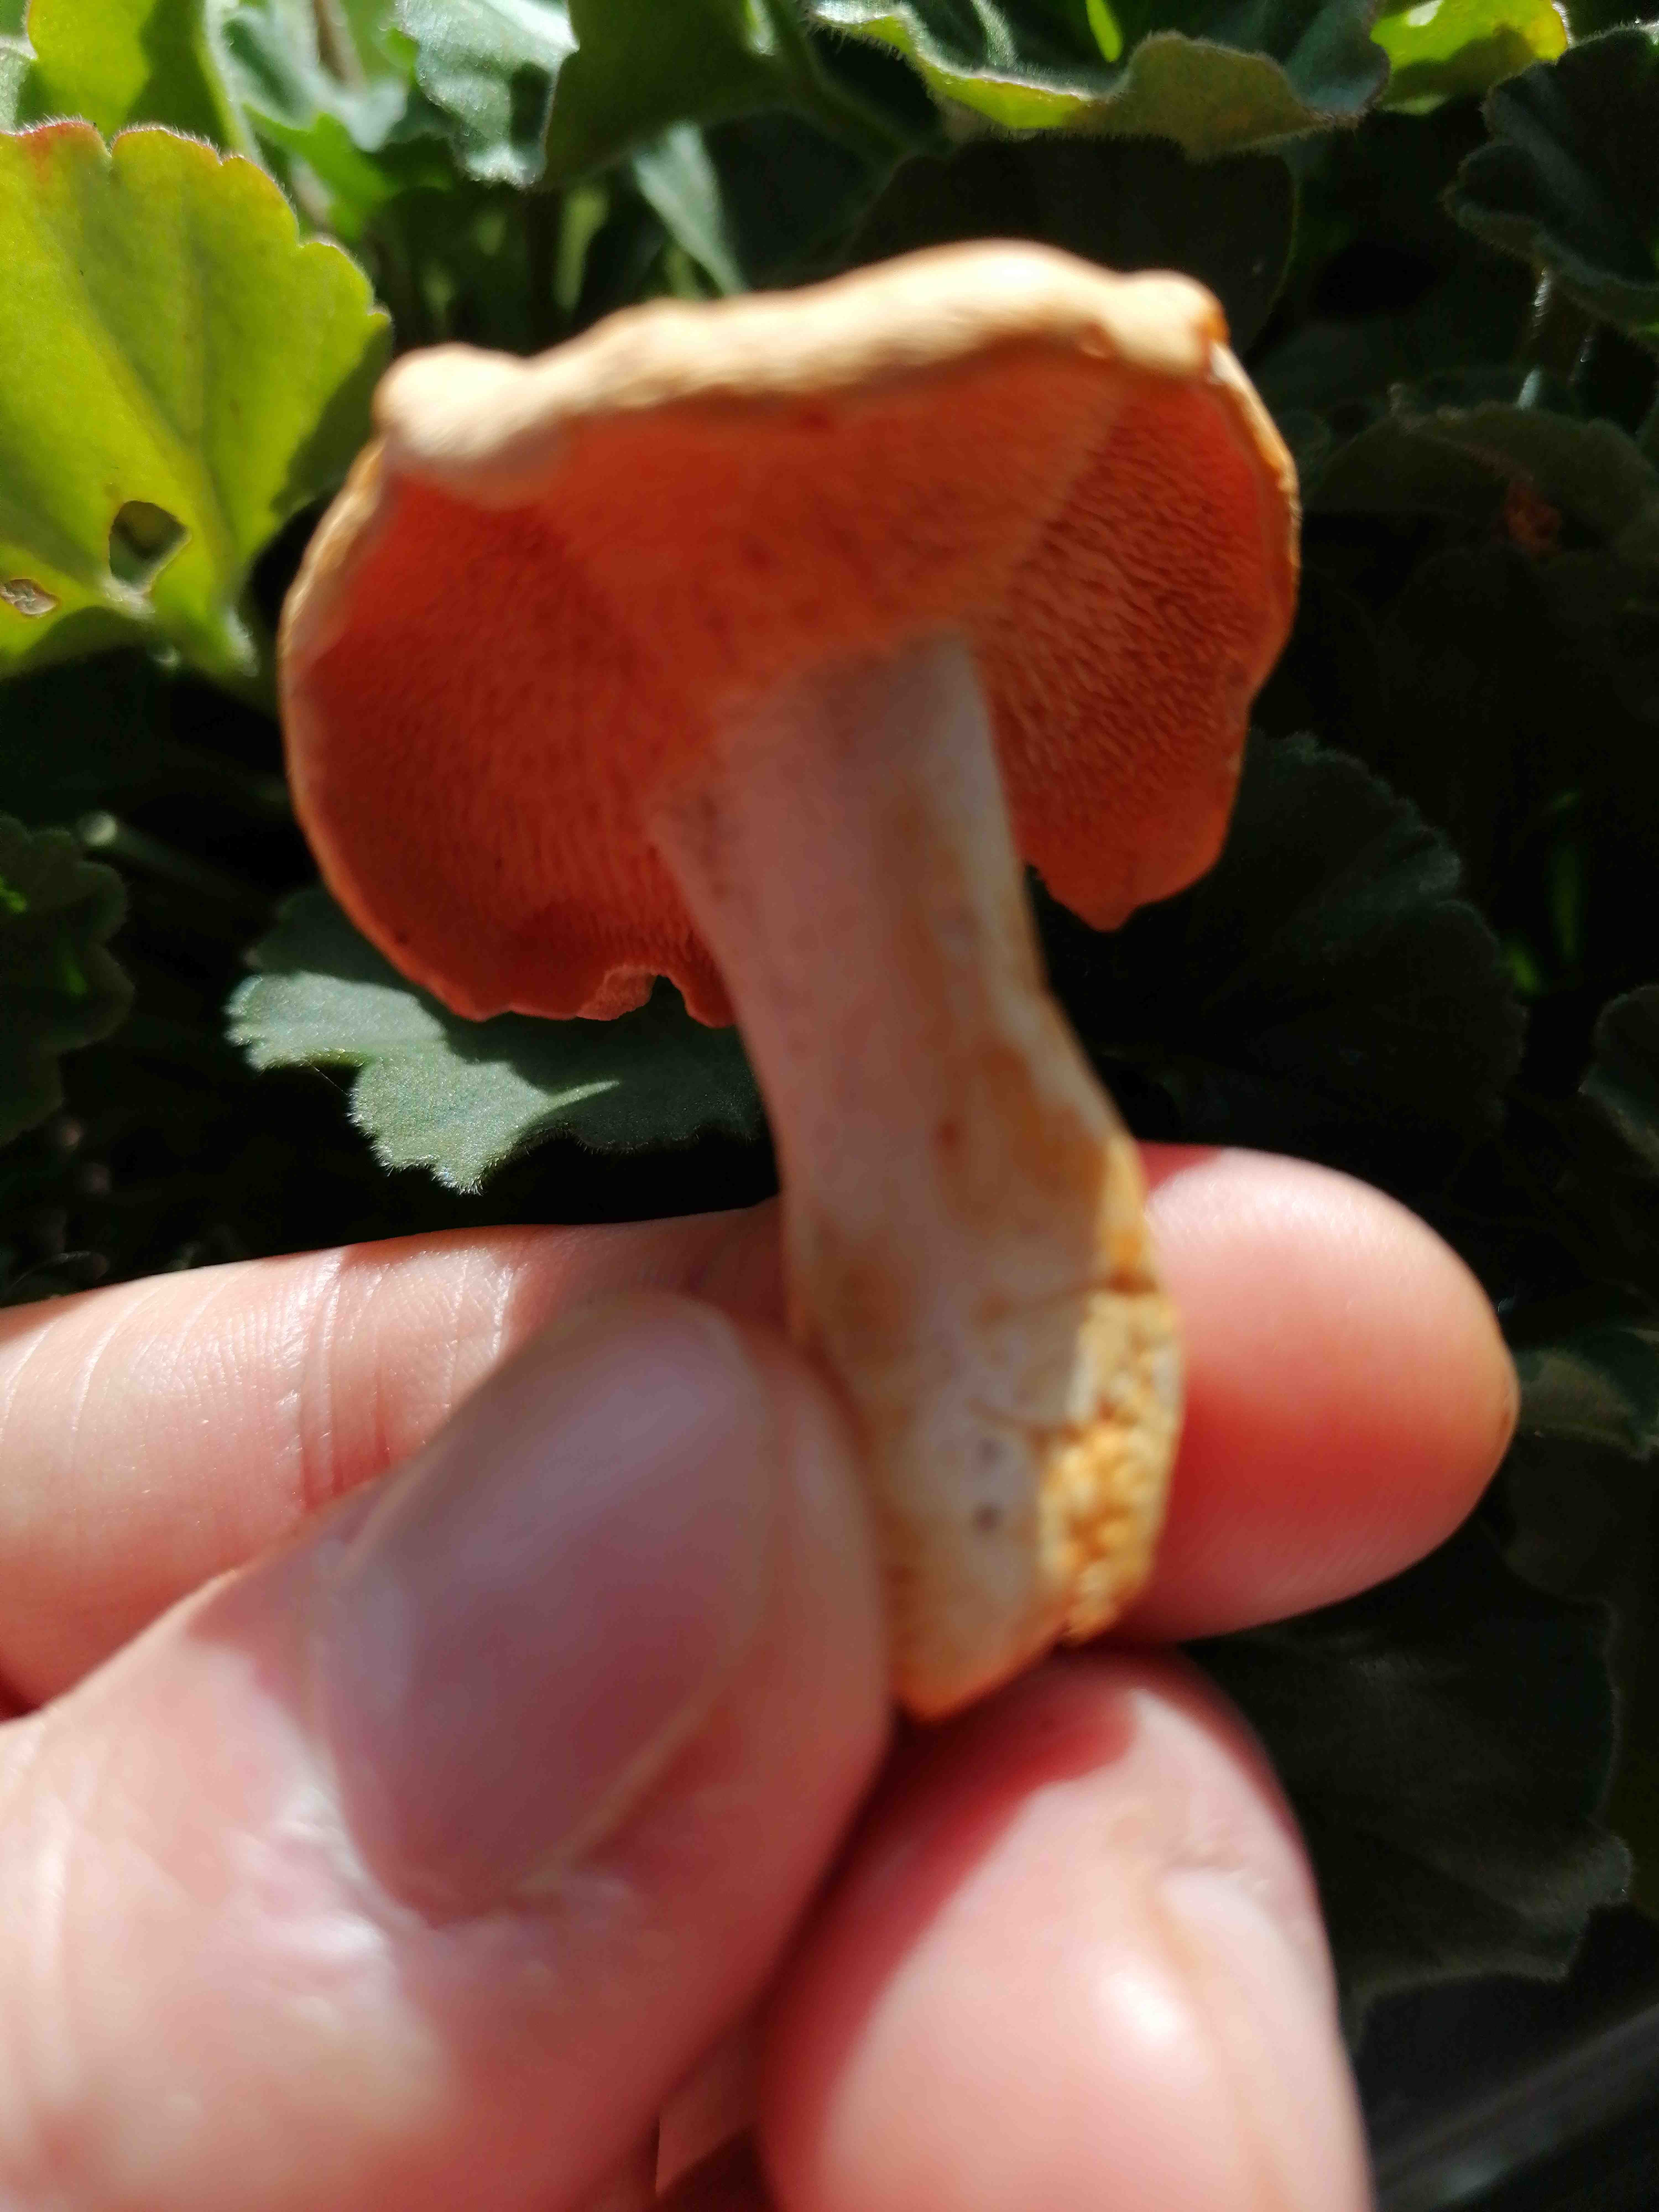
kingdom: Fungi
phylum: Basidiomycota
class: Agaricomycetes
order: Cantharellales
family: Hydnaceae
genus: Hydnum
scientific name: Hydnum
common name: pigsvamp
